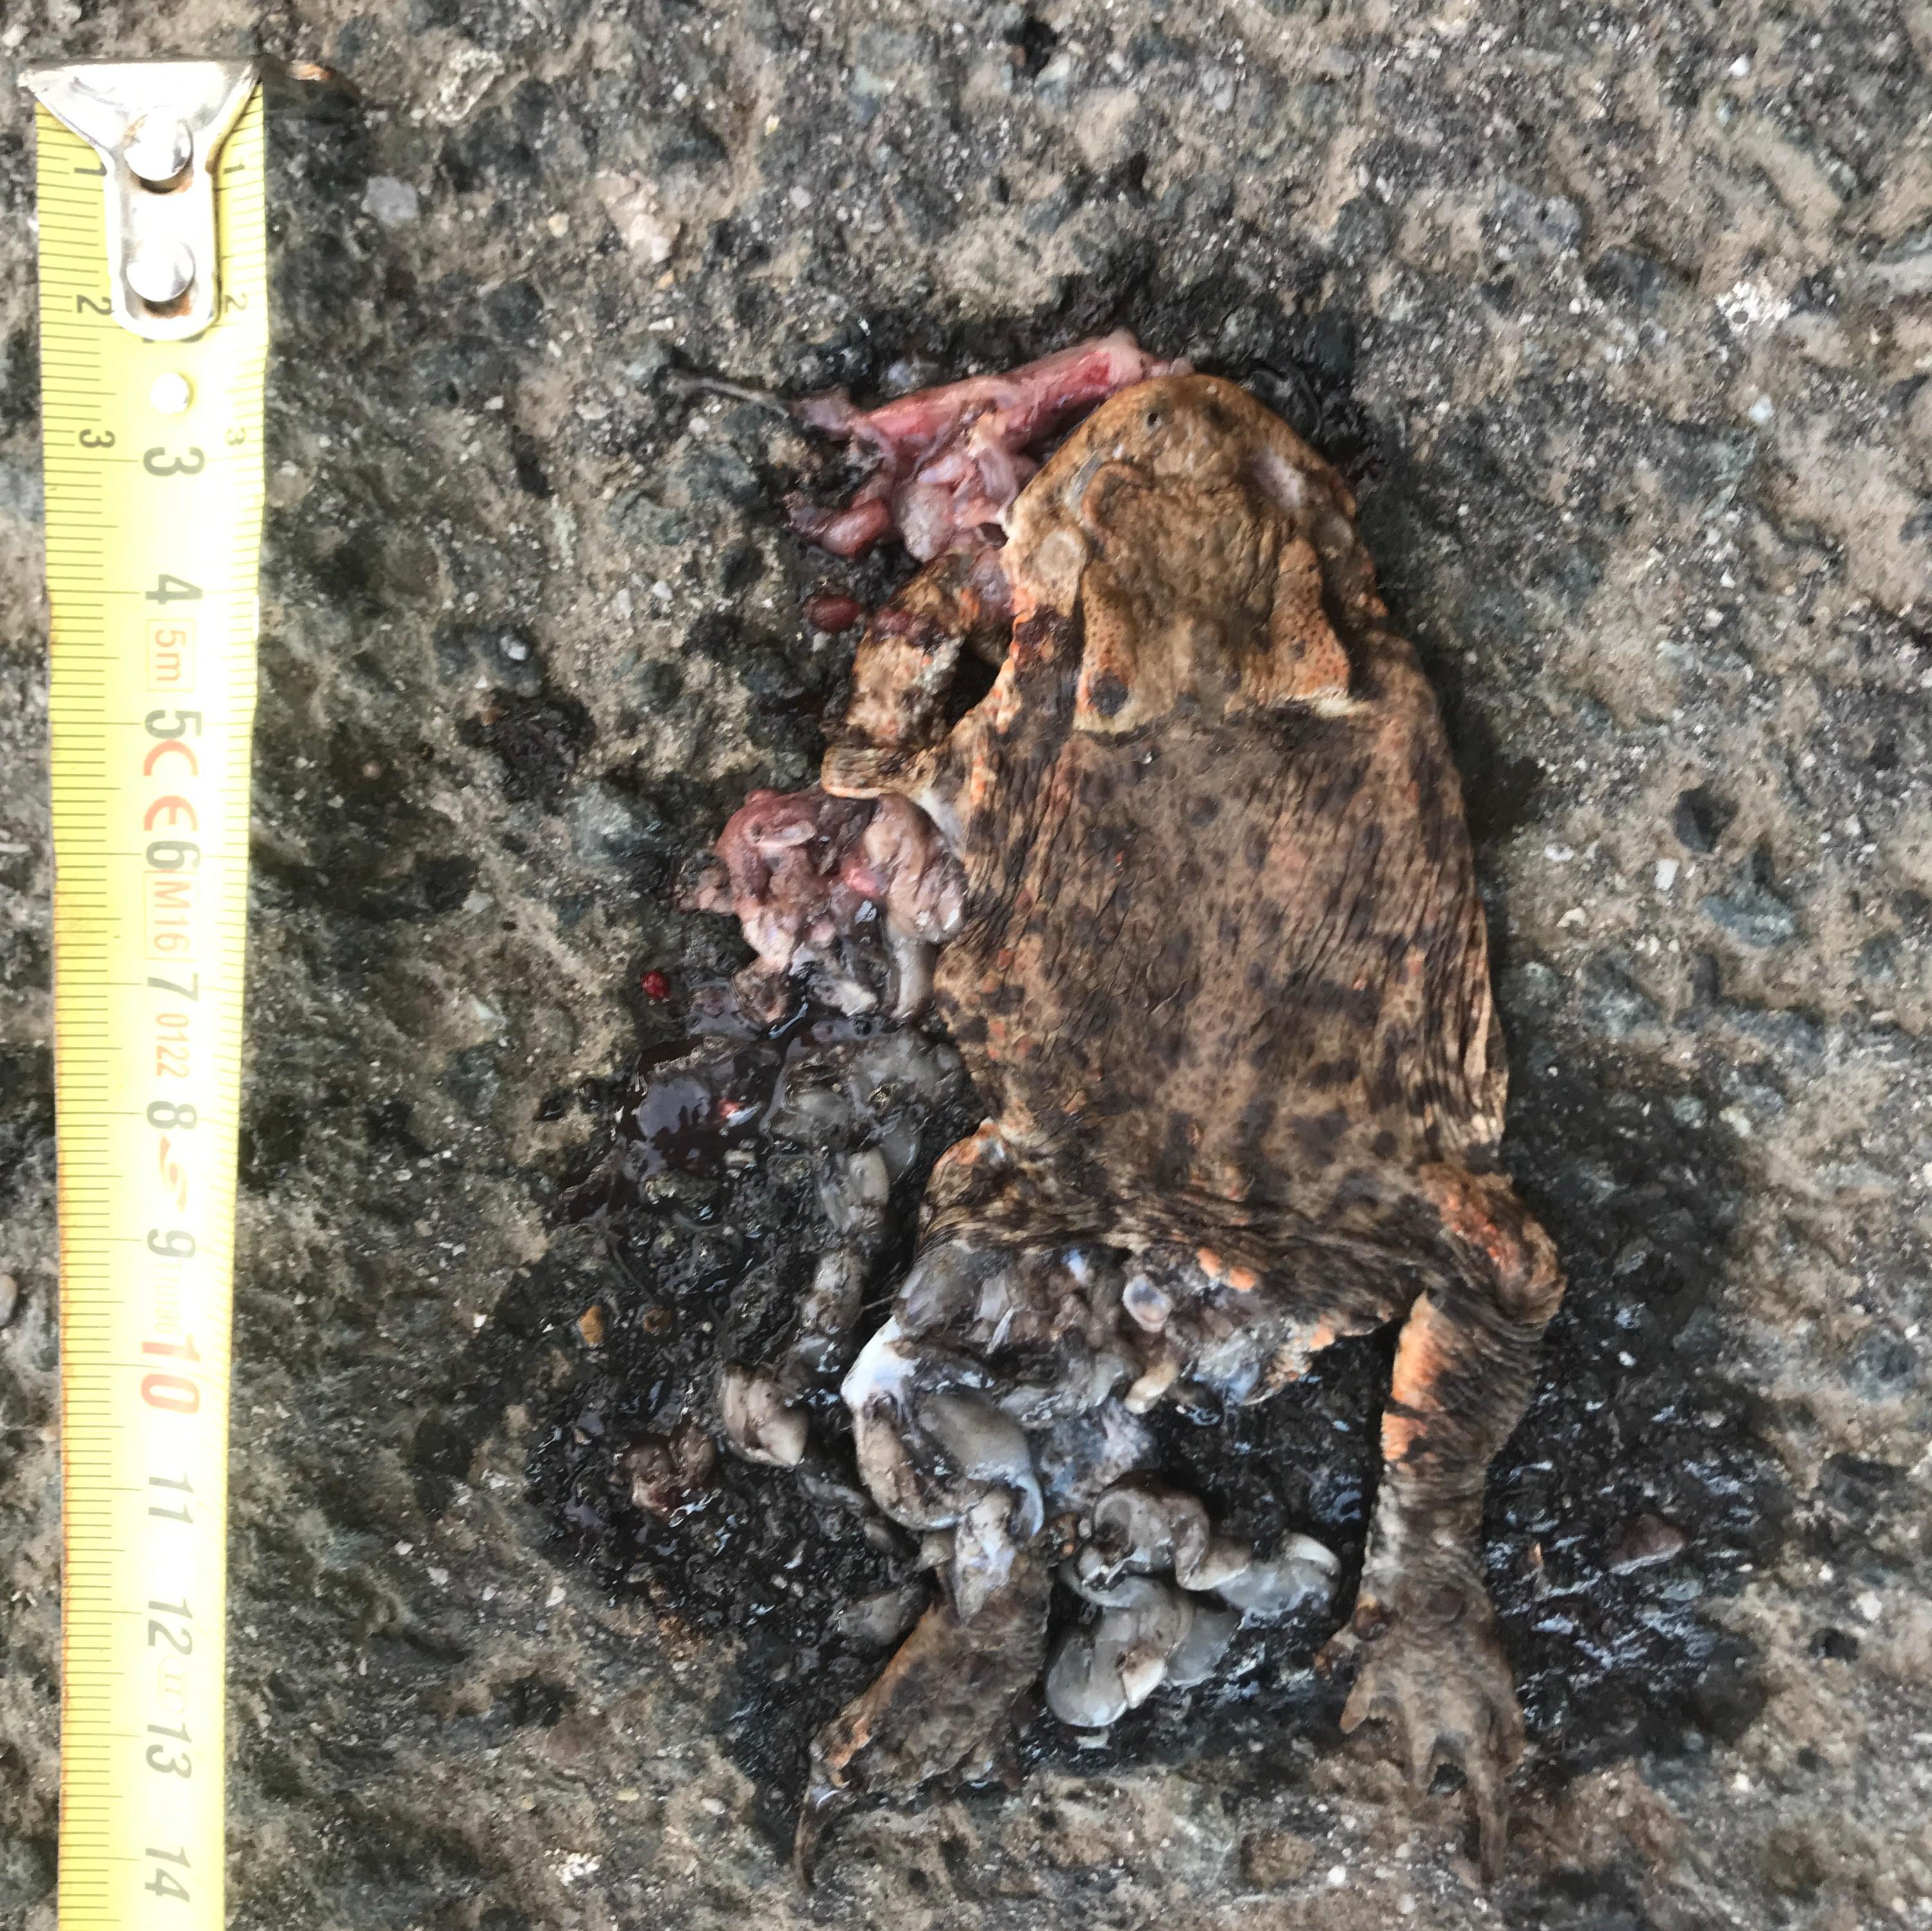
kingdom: Animalia
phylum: Chordata
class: Amphibia
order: Anura
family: Bufonidae
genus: Bufo
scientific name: Bufo bufo
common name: Common toad
